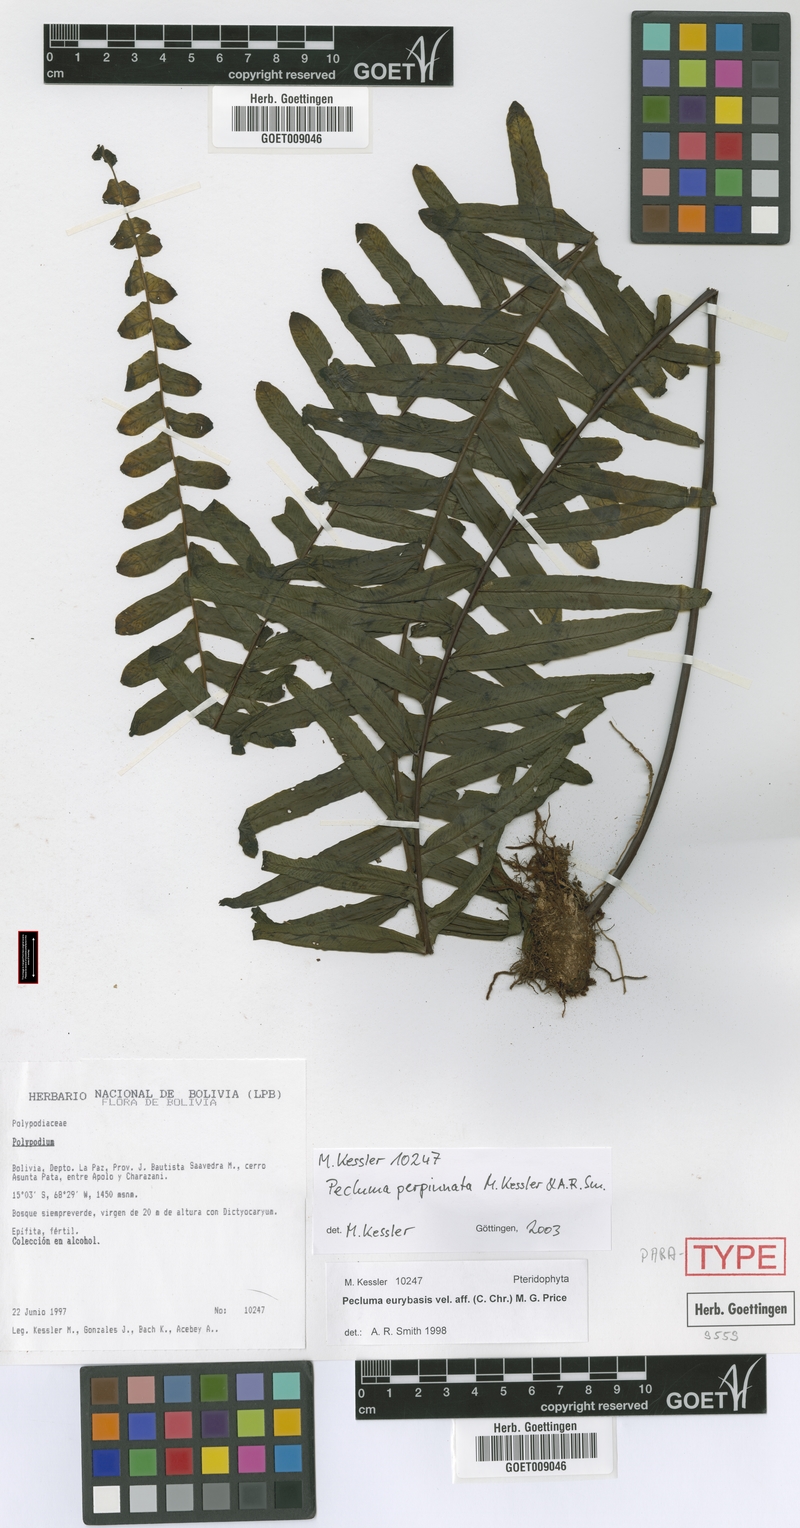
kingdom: Plantae
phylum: Tracheophyta
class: Polypodiopsida
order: Polypodiales
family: Polypodiaceae
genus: Pecluma
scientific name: Pecluma perpinnata
